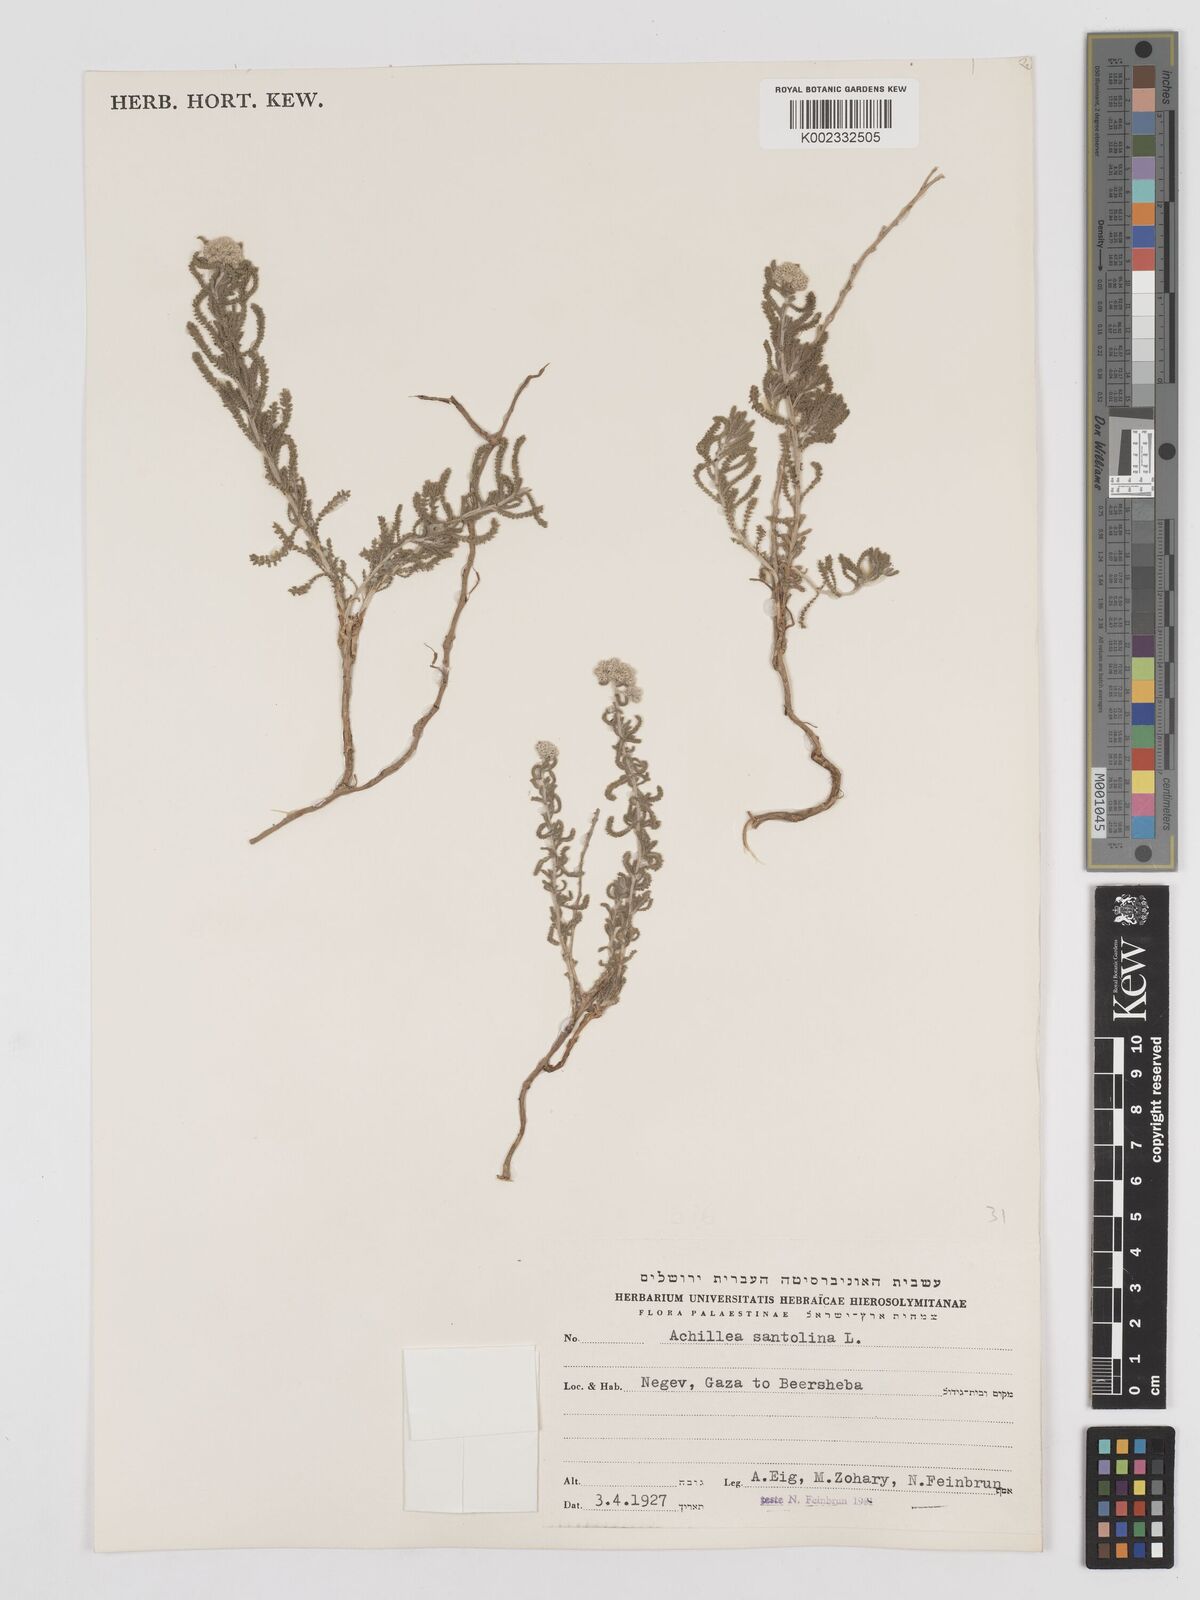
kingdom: Plantae
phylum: Tracheophyta
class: Magnoliopsida
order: Asterales
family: Asteraceae
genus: Achillea
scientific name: Achillea tenuifolia
